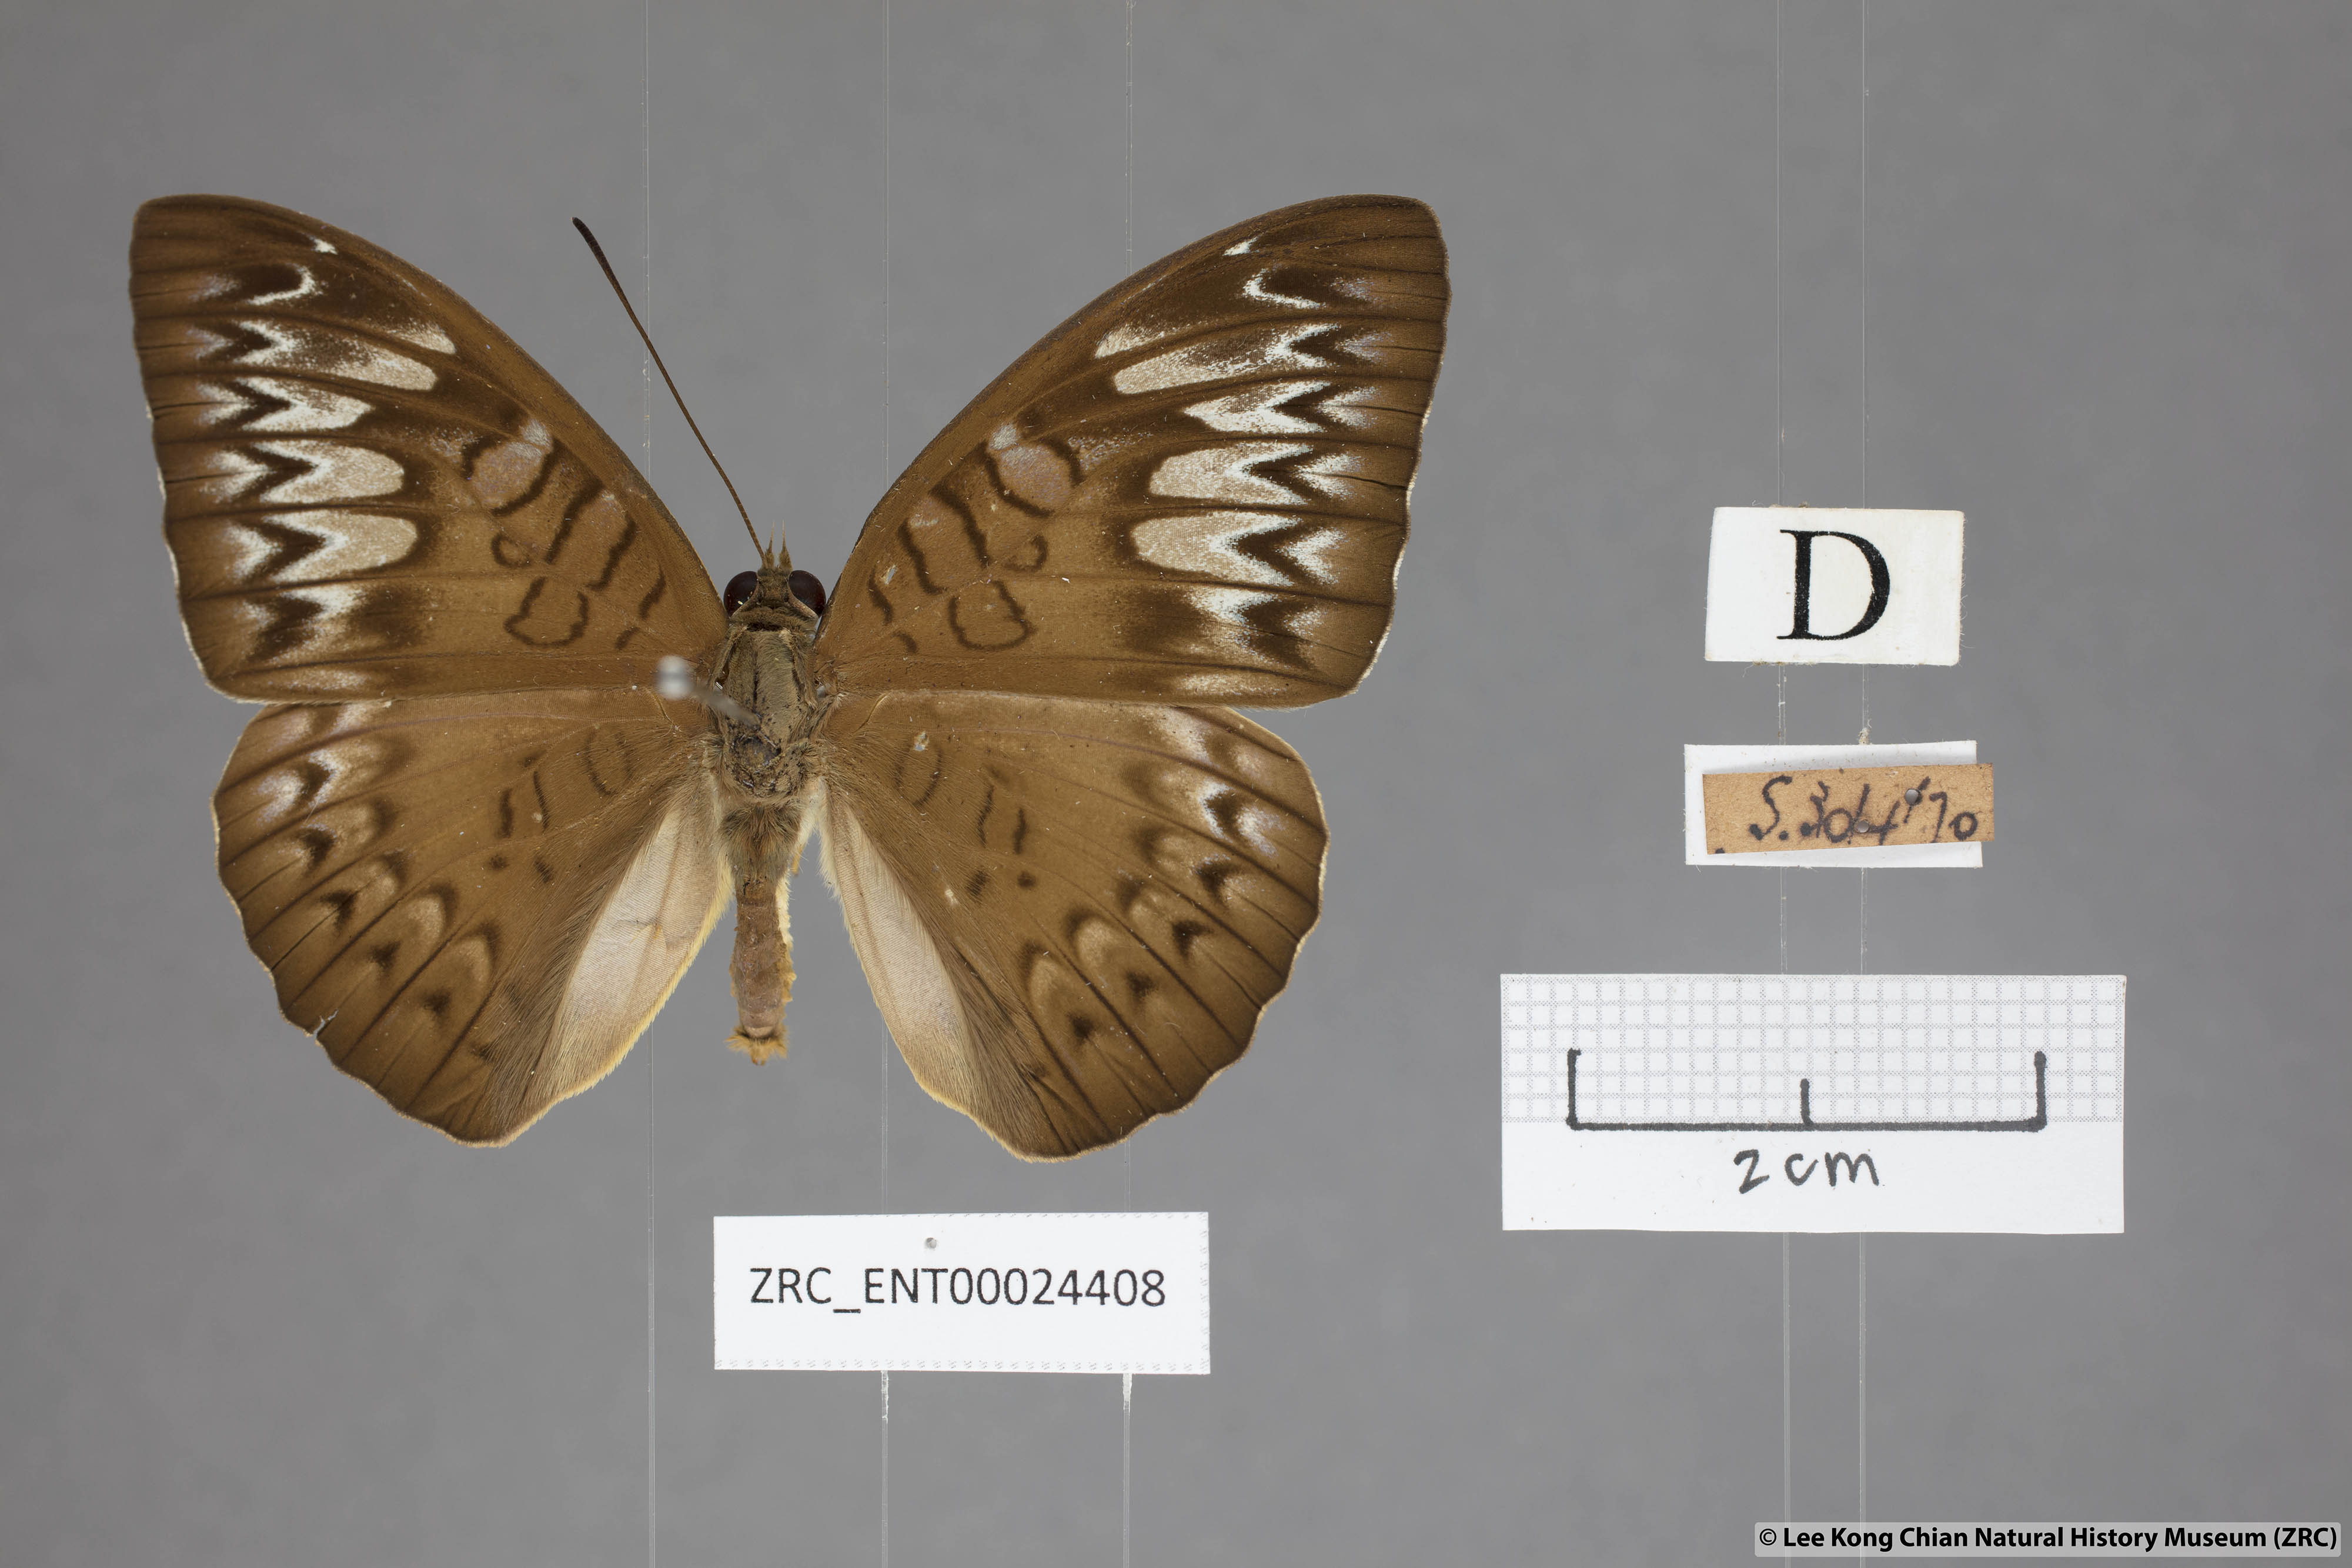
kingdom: Animalia
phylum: Arthropoda
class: Insecta
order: Lepidoptera
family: Nymphalidae
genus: Tanaecia
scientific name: Tanaecia pelea
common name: Malay viscount
